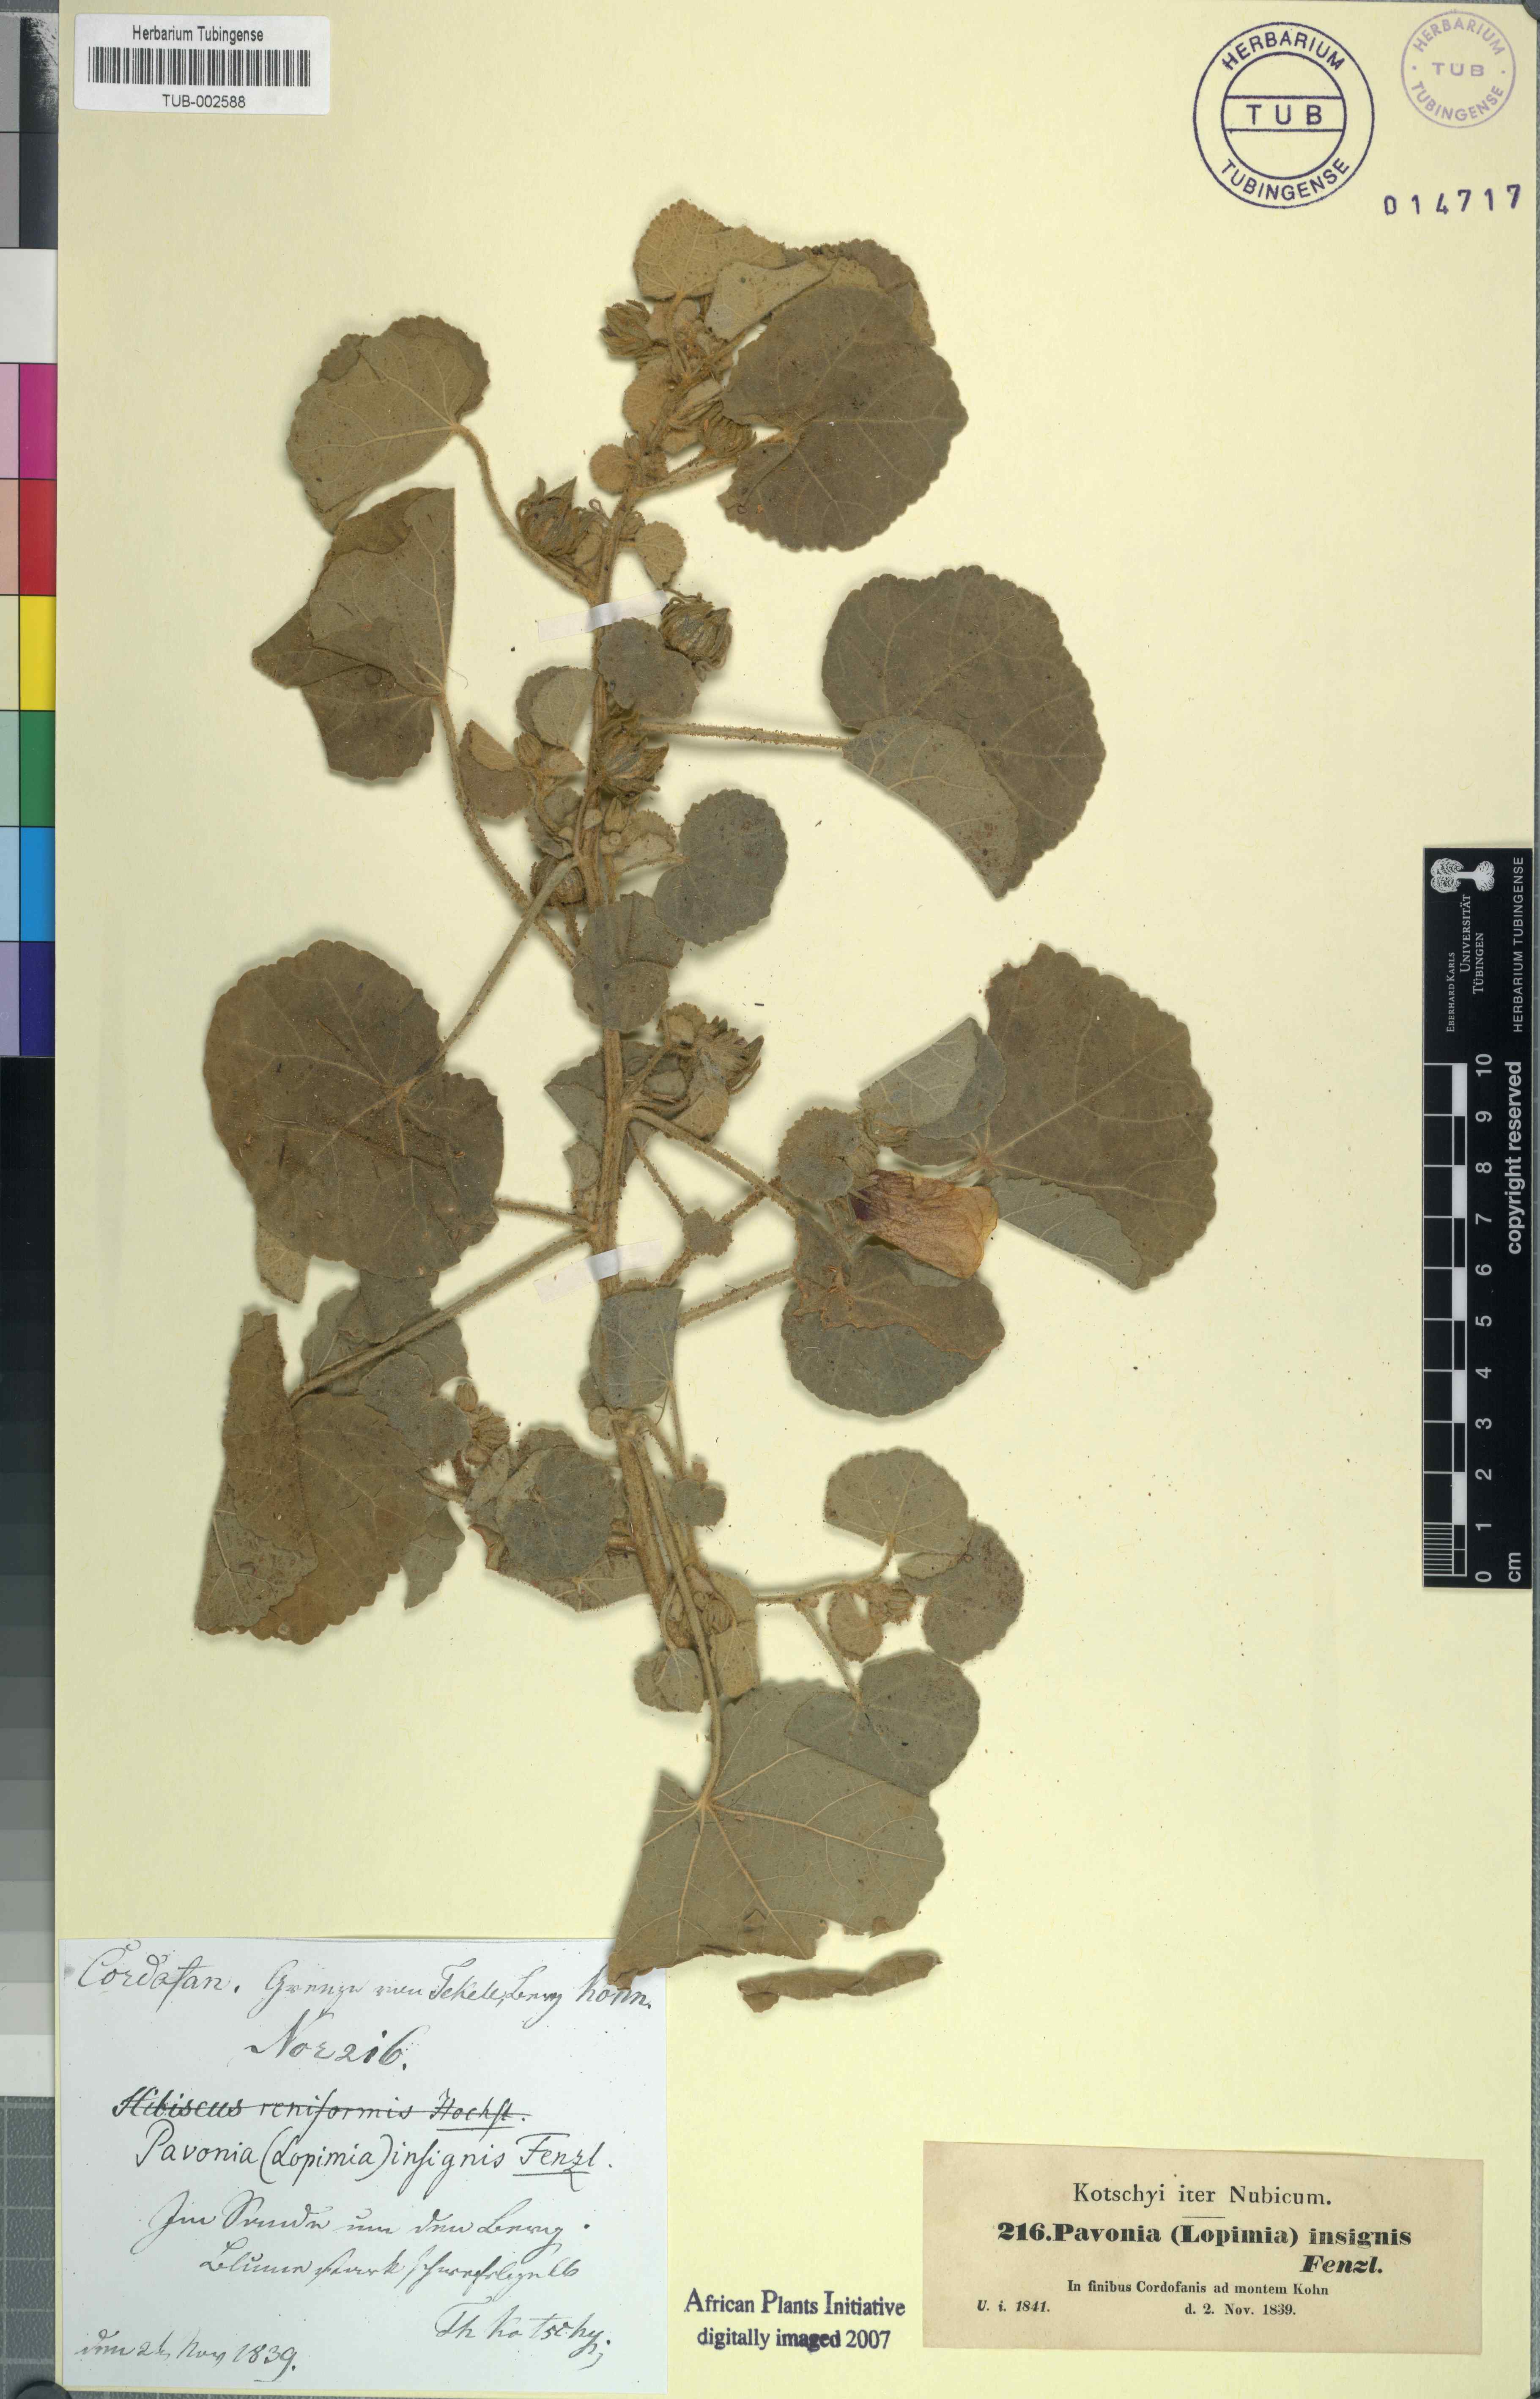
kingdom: Plantae
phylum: Tracheophyta
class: Magnoliopsida
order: Malvales
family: Malvaceae
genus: Pavonia
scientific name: Pavonia senegalensis
